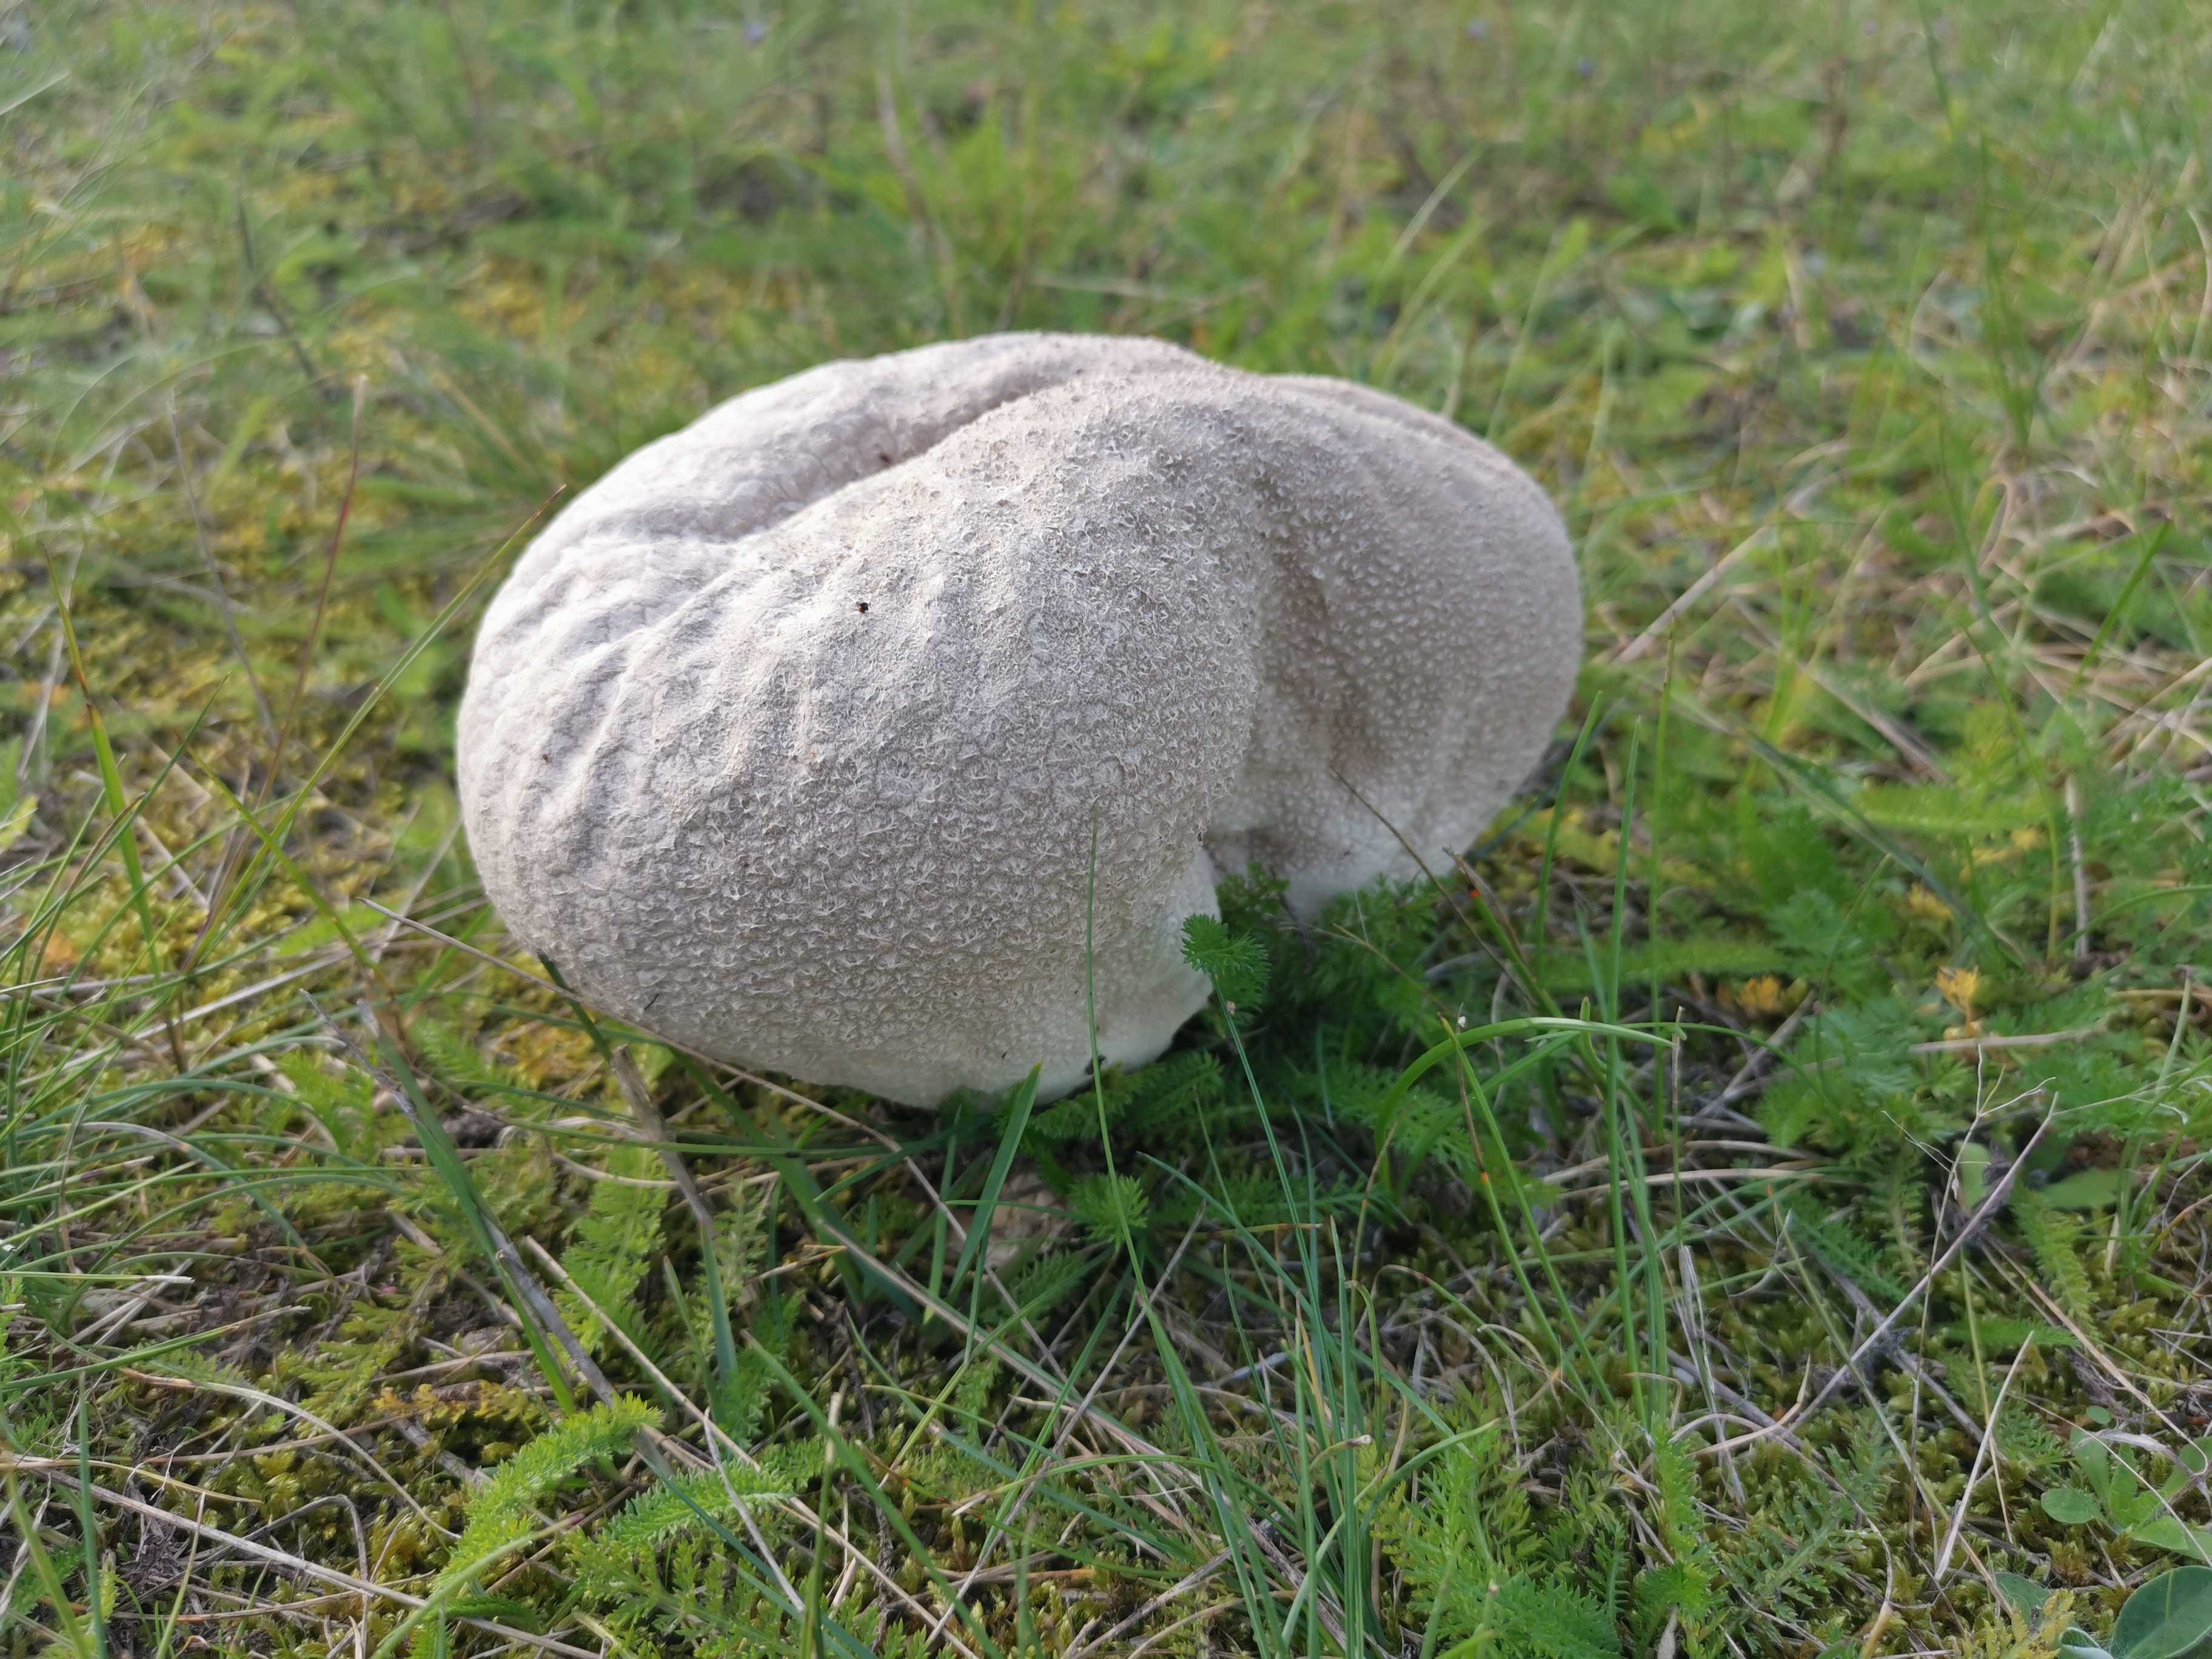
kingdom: Fungi
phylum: Basidiomycota
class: Agaricomycetes
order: Agaricales
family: Lycoperdaceae
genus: Bovistella
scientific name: Bovistella utriformis
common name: skællet støvbold
